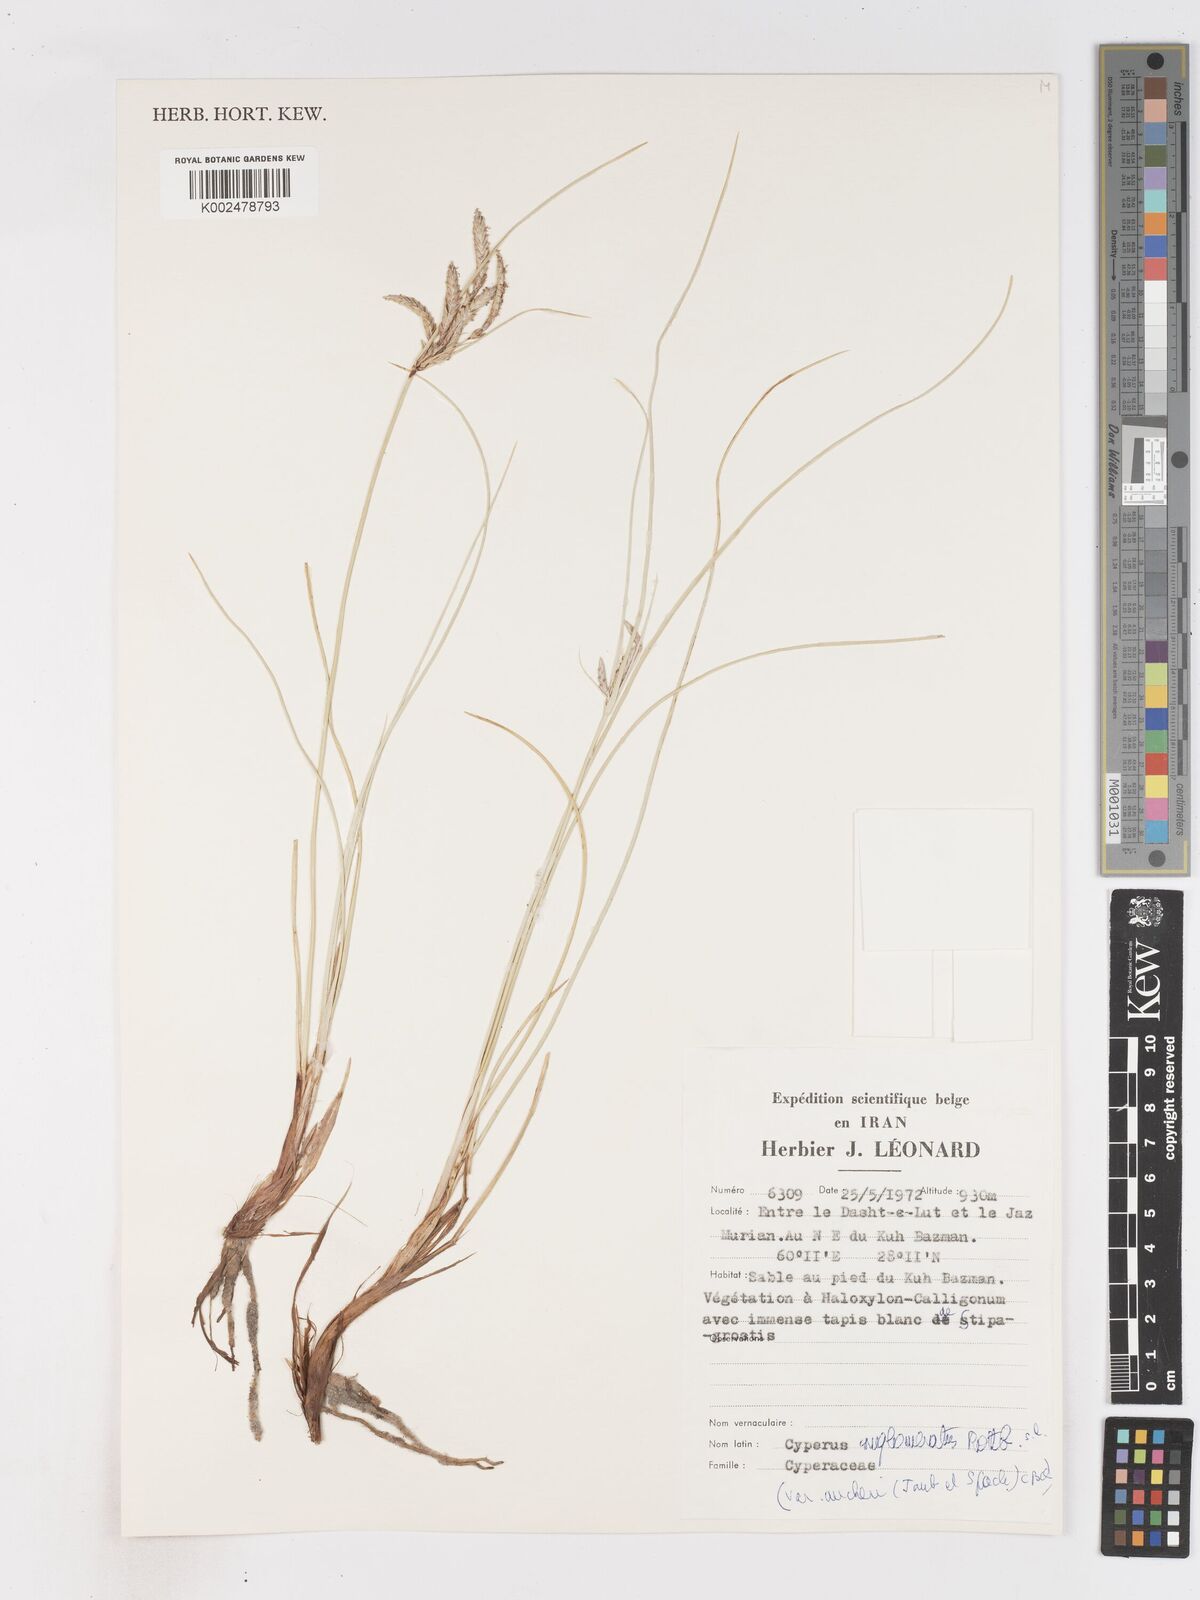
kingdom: Plantae
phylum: Tracheophyta
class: Liliopsida
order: Poales
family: Cyperaceae
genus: Cyperus
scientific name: Cyperus aucheri
